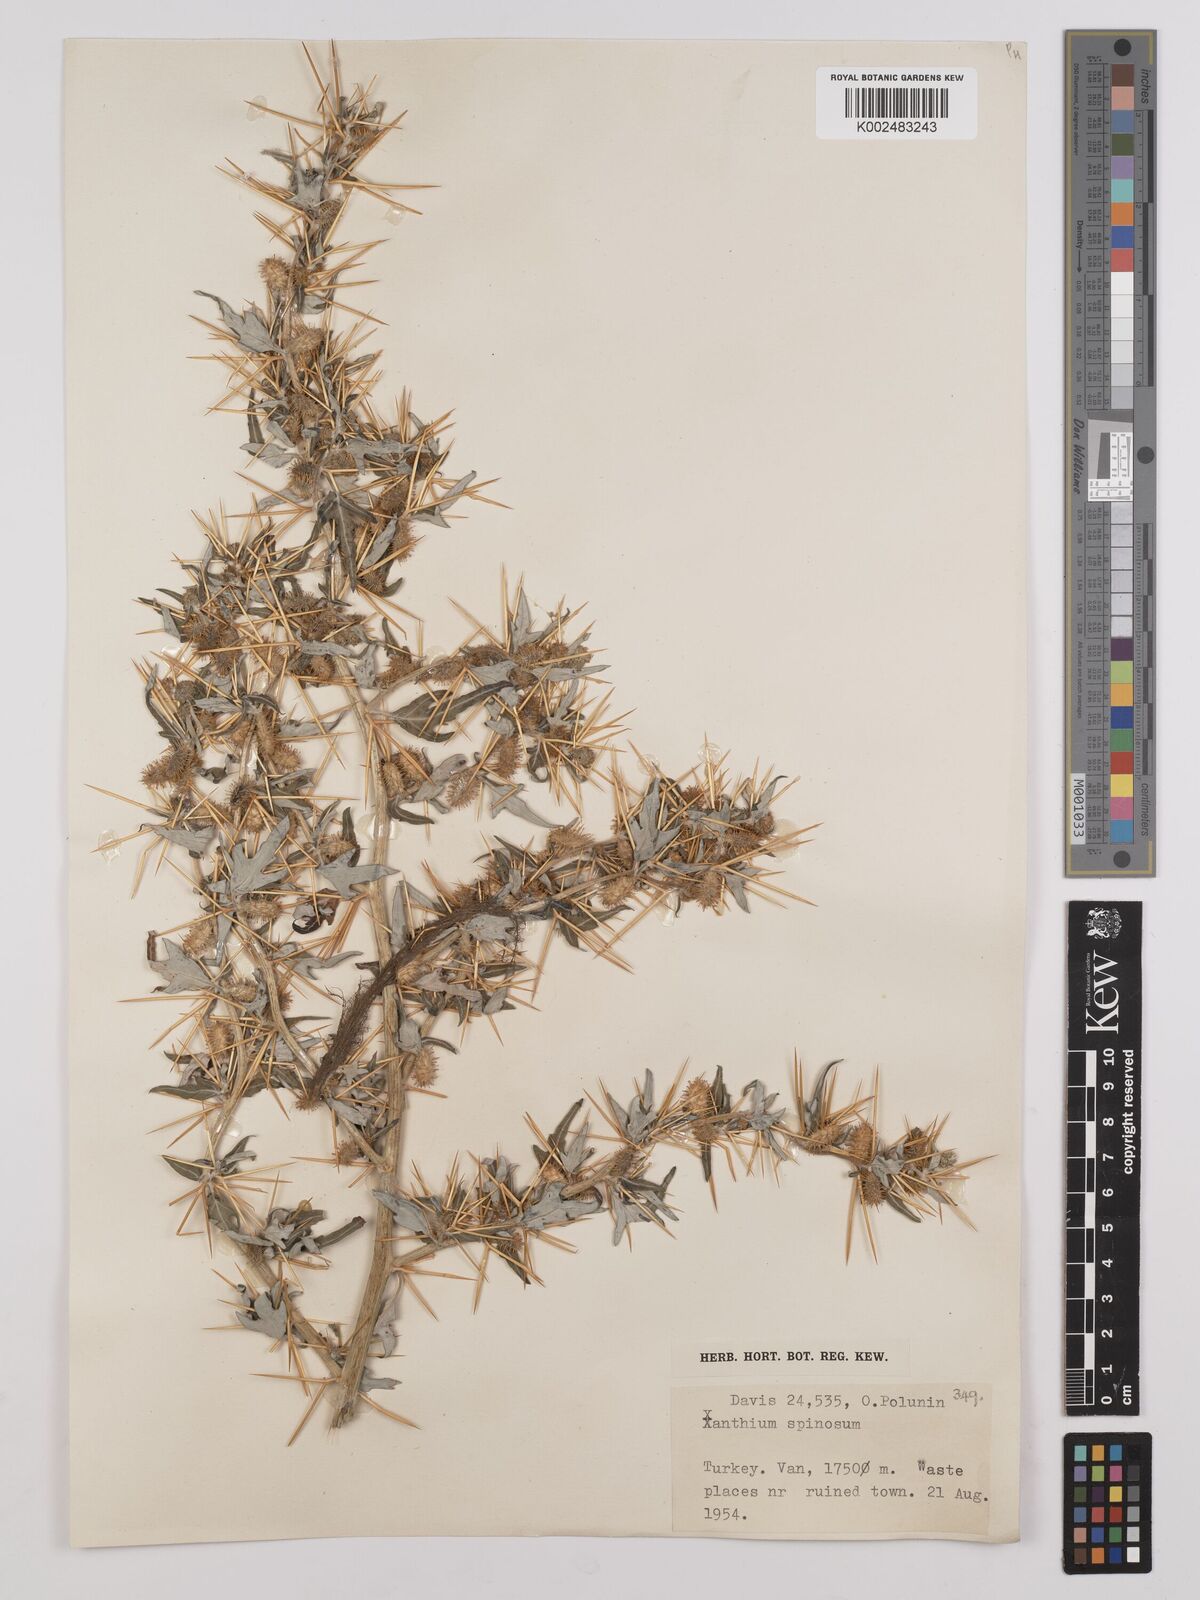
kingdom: Plantae
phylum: Tracheophyta
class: Magnoliopsida
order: Asterales
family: Asteraceae
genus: Xanthium
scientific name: Xanthium spinosum
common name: Spiny cocklebur
